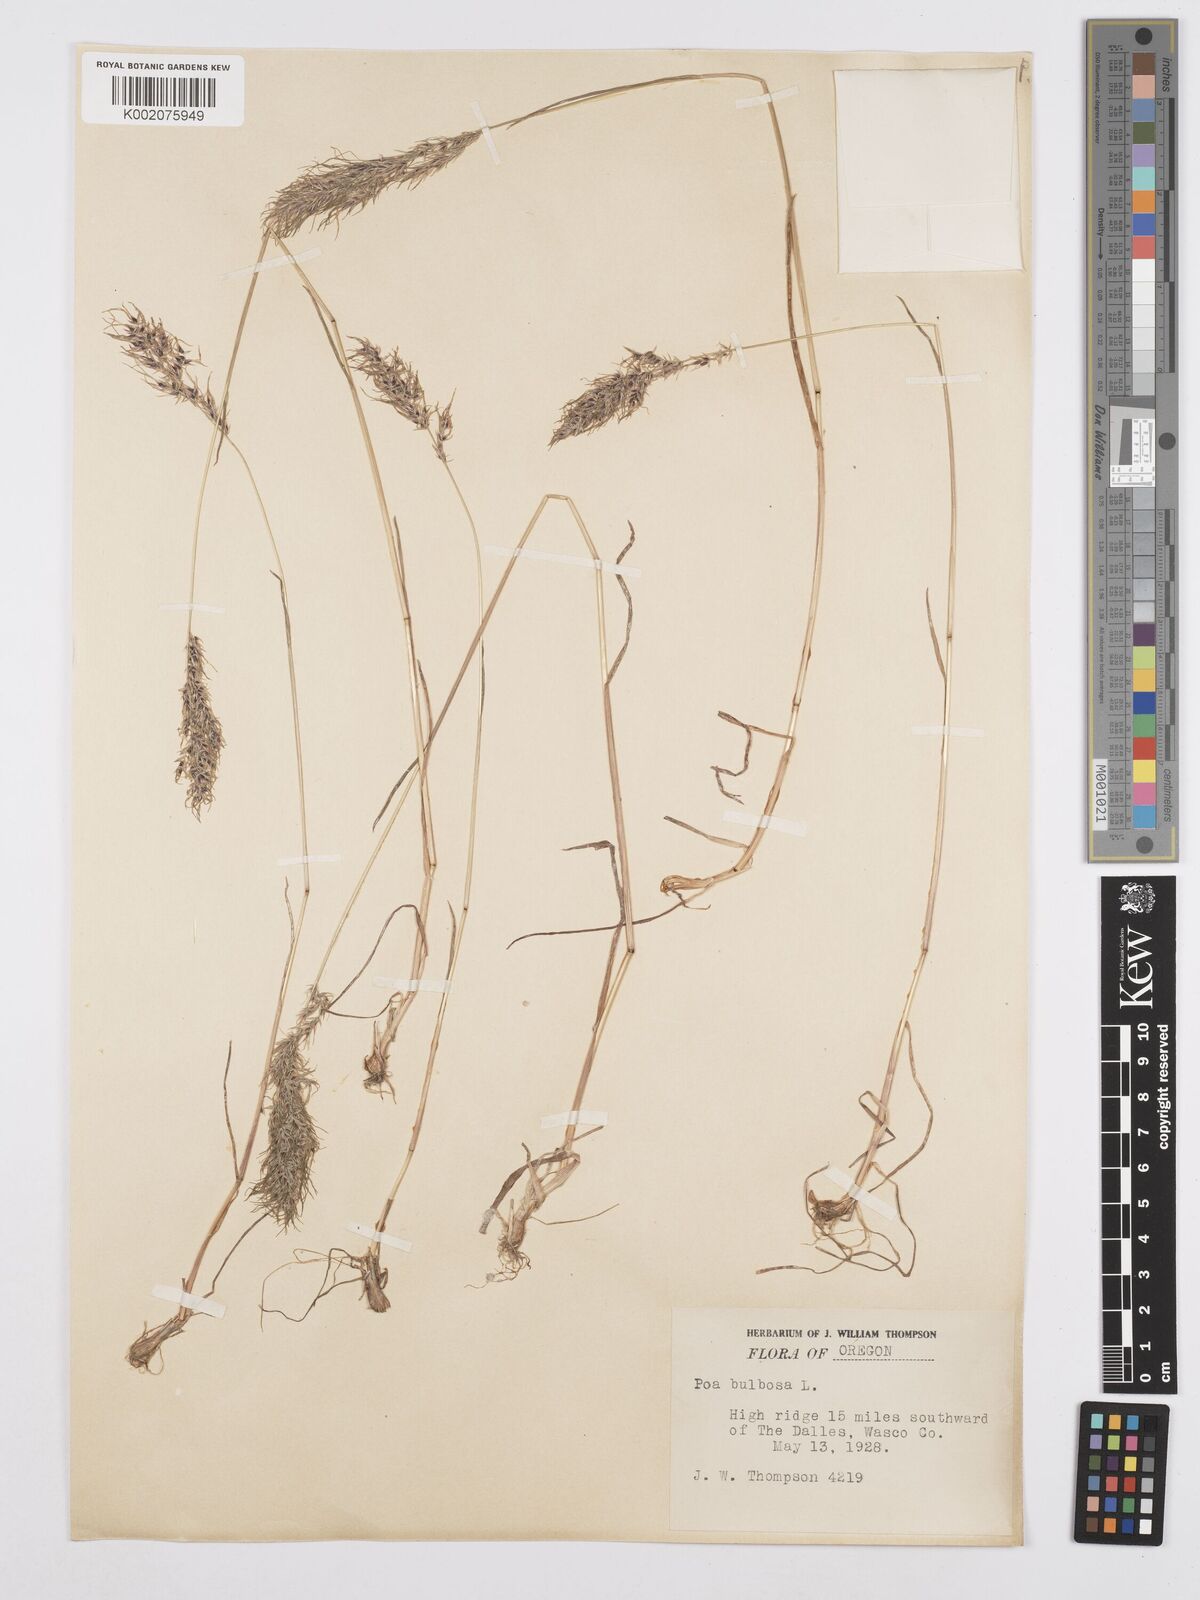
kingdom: Plantae
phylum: Tracheophyta
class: Liliopsida
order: Poales
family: Poaceae
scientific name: Poaceae
